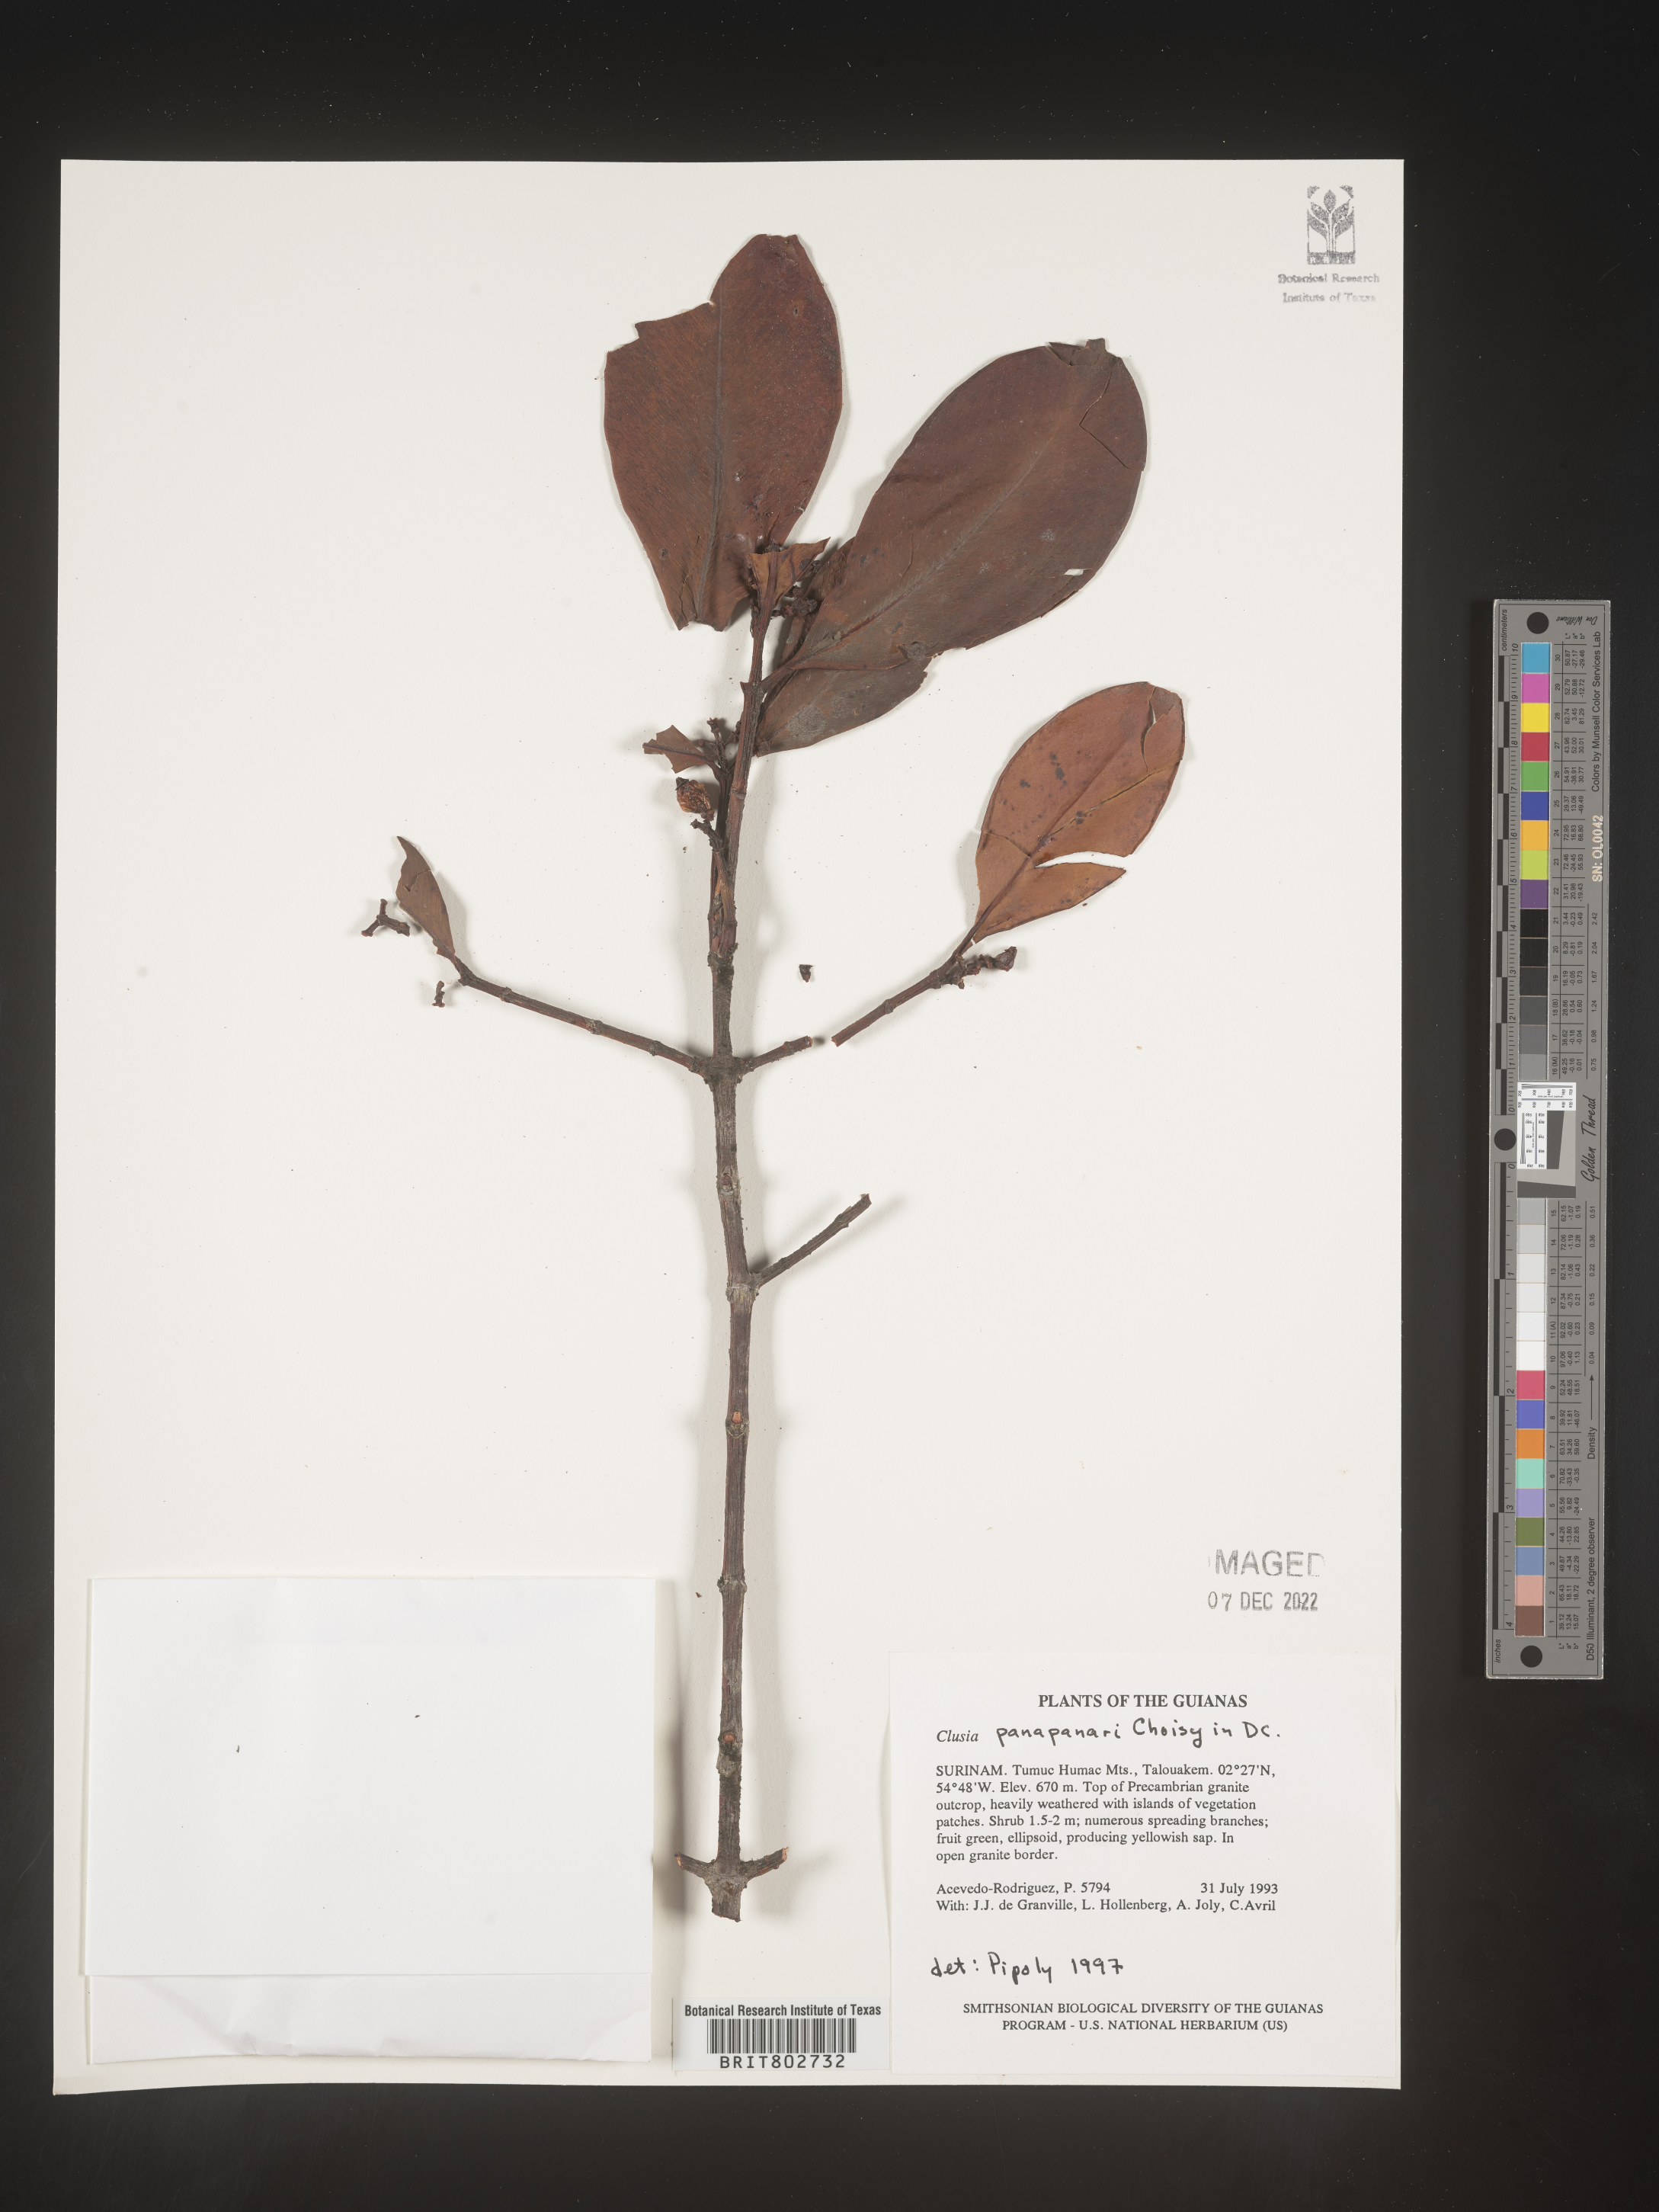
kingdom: Plantae
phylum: Tracheophyta
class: Magnoliopsida
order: Malpighiales
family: Clusiaceae
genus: Clusia
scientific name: Clusia panapanari
